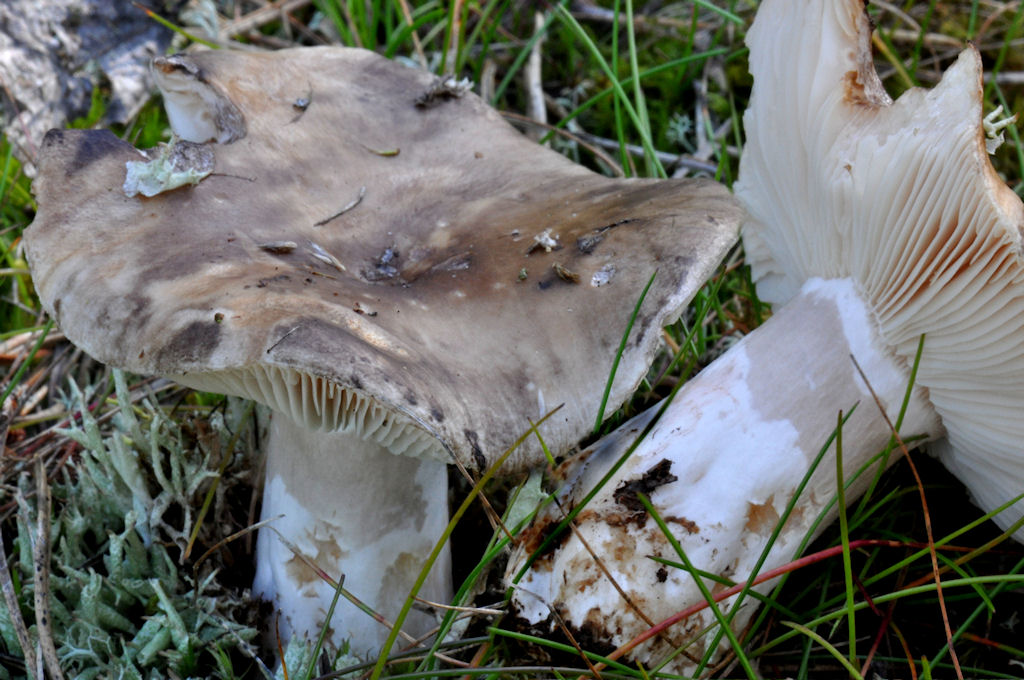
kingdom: Fungi
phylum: Basidiomycota
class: Agaricomycetes
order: Russulales
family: Russulaceae
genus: Russula
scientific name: Russula adusta
